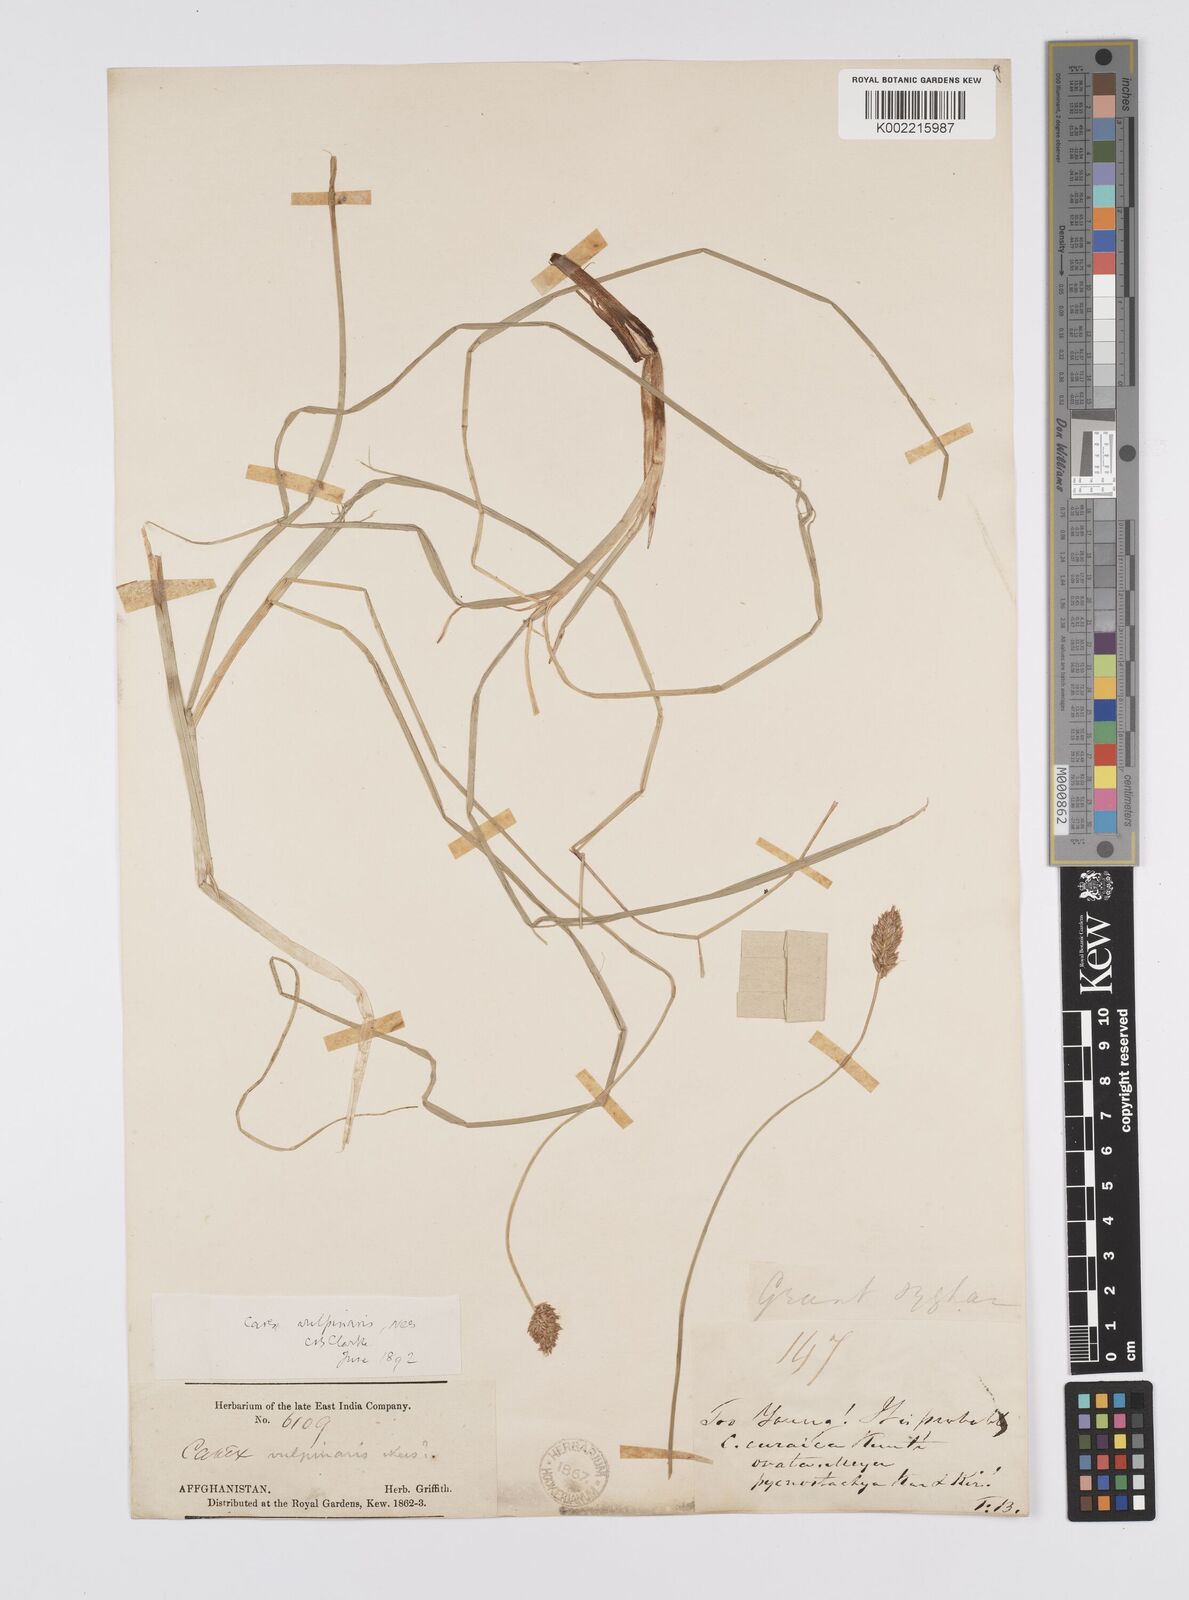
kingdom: Plantae
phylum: Tracheophyta
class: Liliopsida
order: Poales
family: Cyperaceae
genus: Carex
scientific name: Carex vulpinaris
